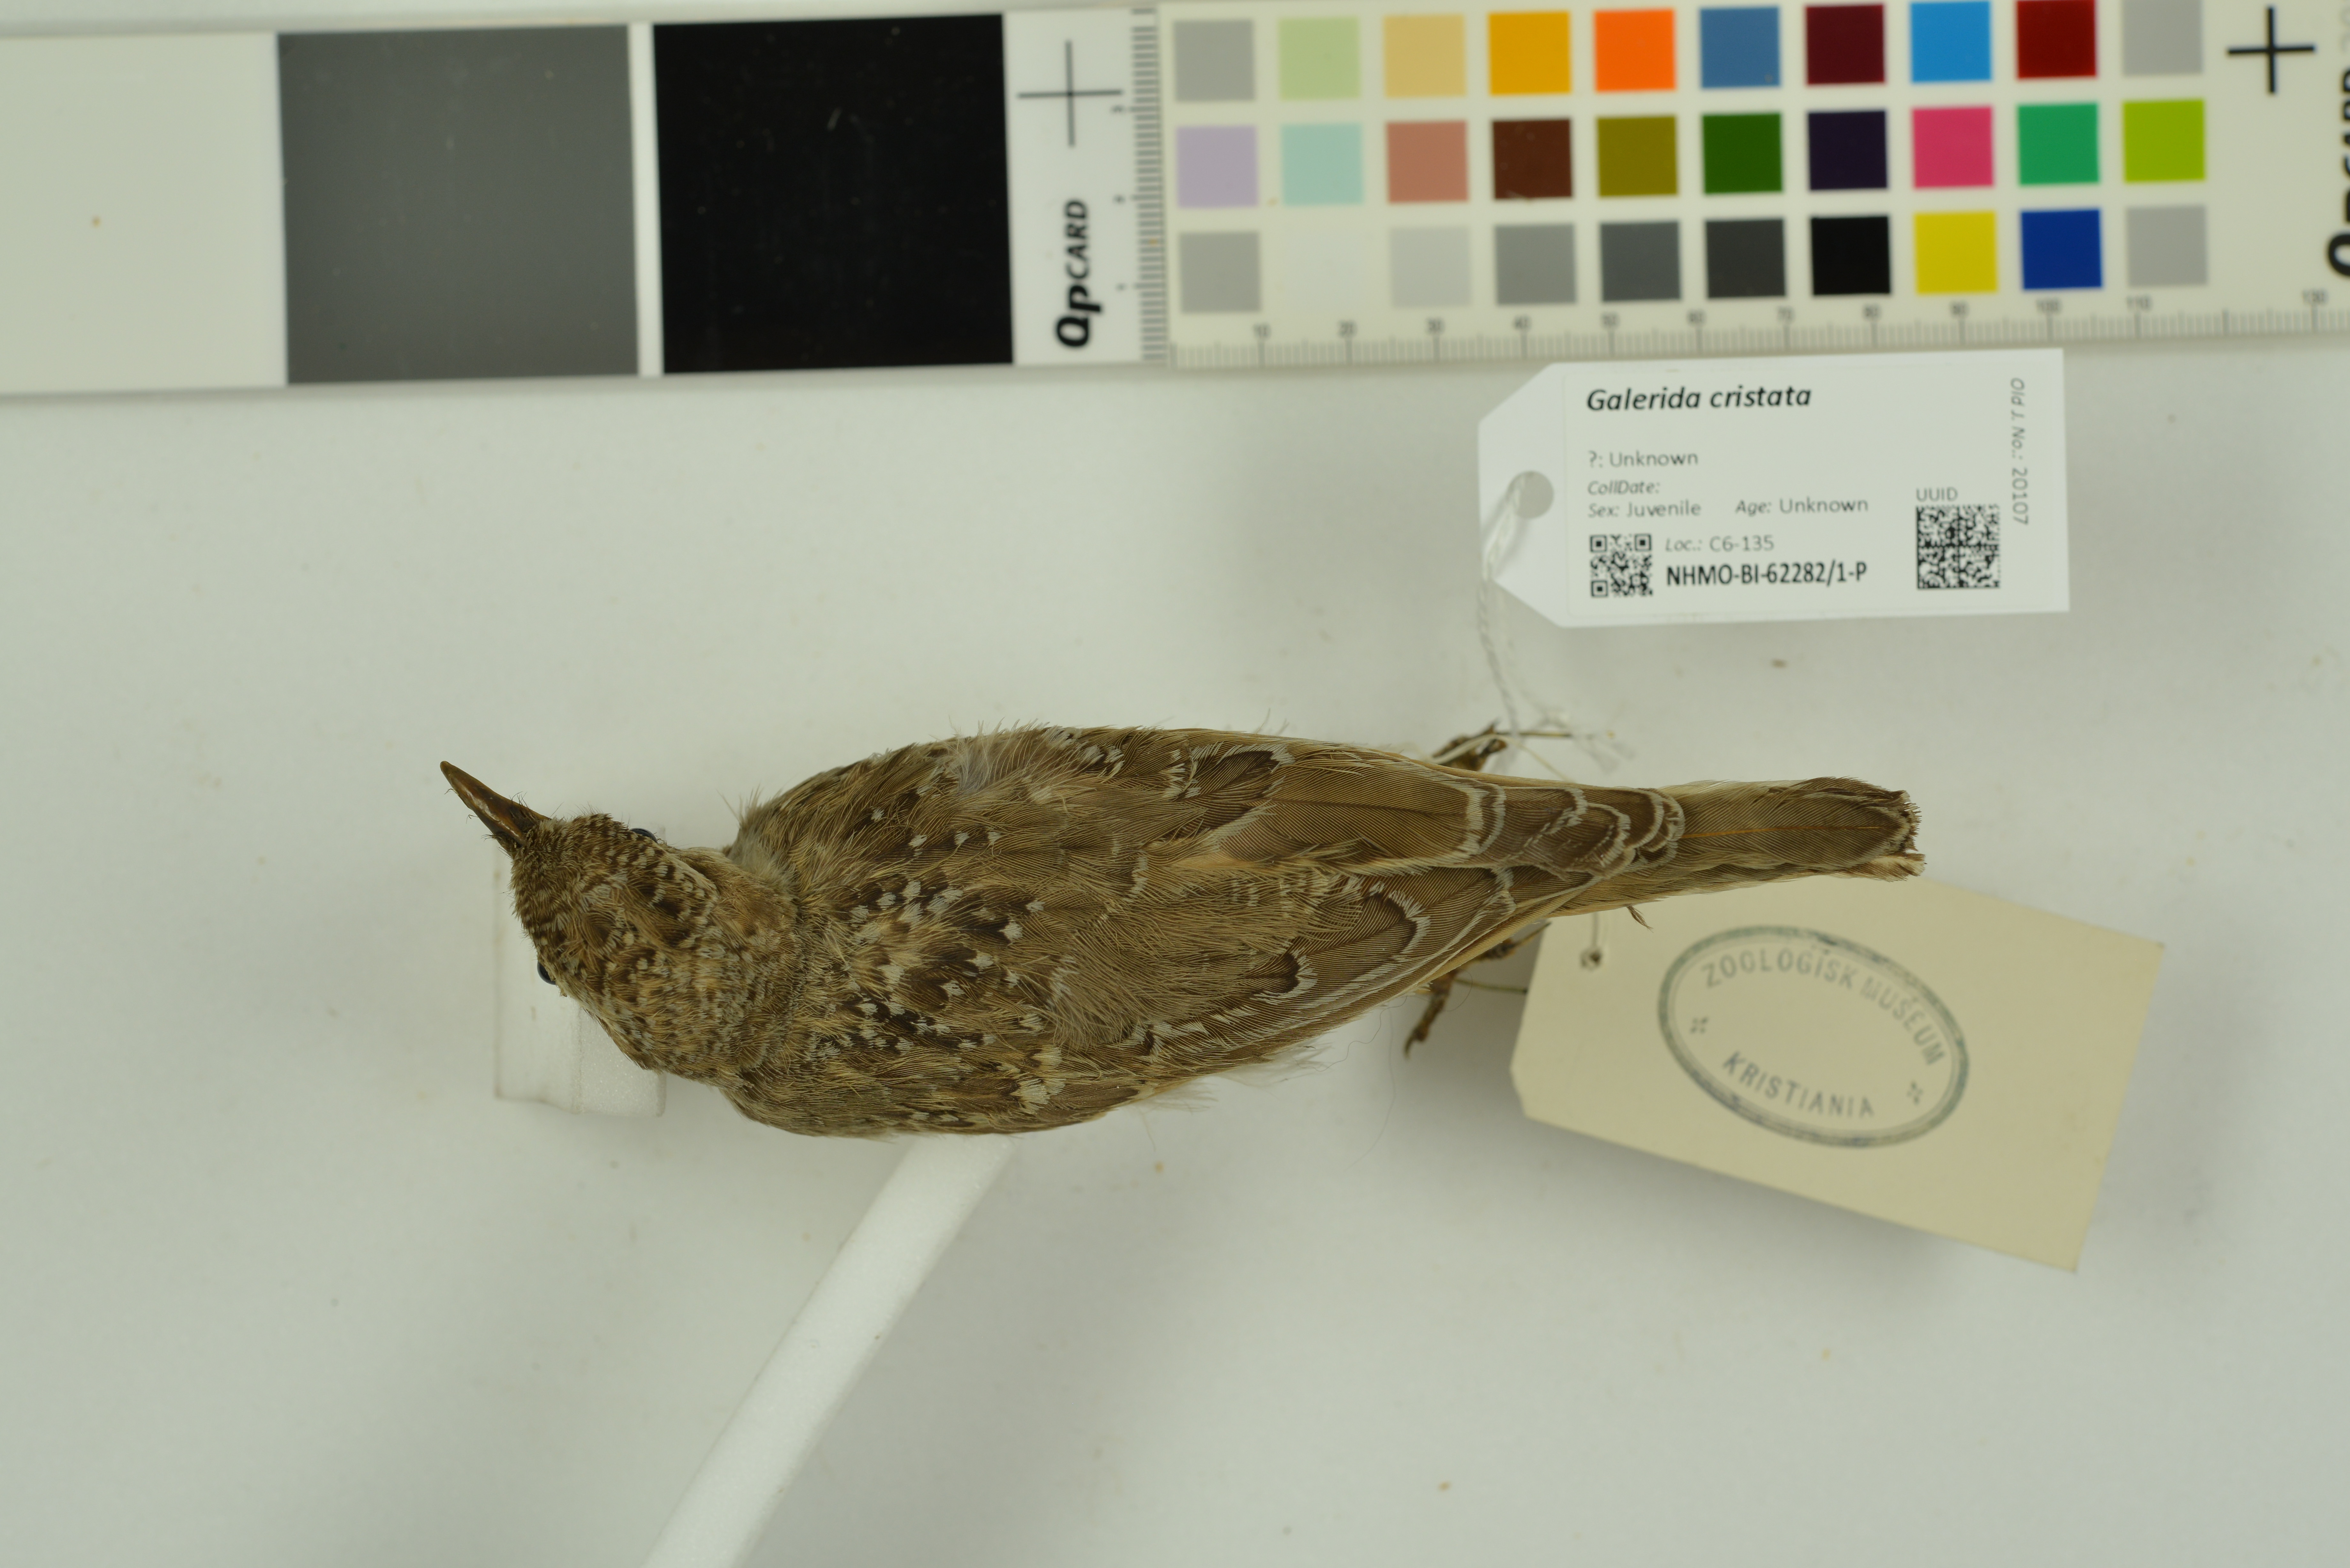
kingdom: Animalia
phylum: Chordata
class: Aves
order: Passeriformes
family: Alaudidae
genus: Galerida
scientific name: Galerida cristata
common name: Crested lark
